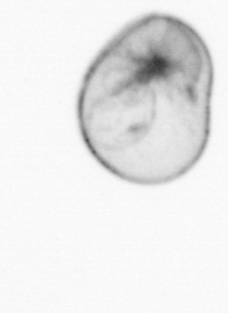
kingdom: Chromista
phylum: Myzozoa
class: Dinophyceae
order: Noctilucales
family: Noctilucaceae
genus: Noctiluca
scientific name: Noctiluca scintillans
